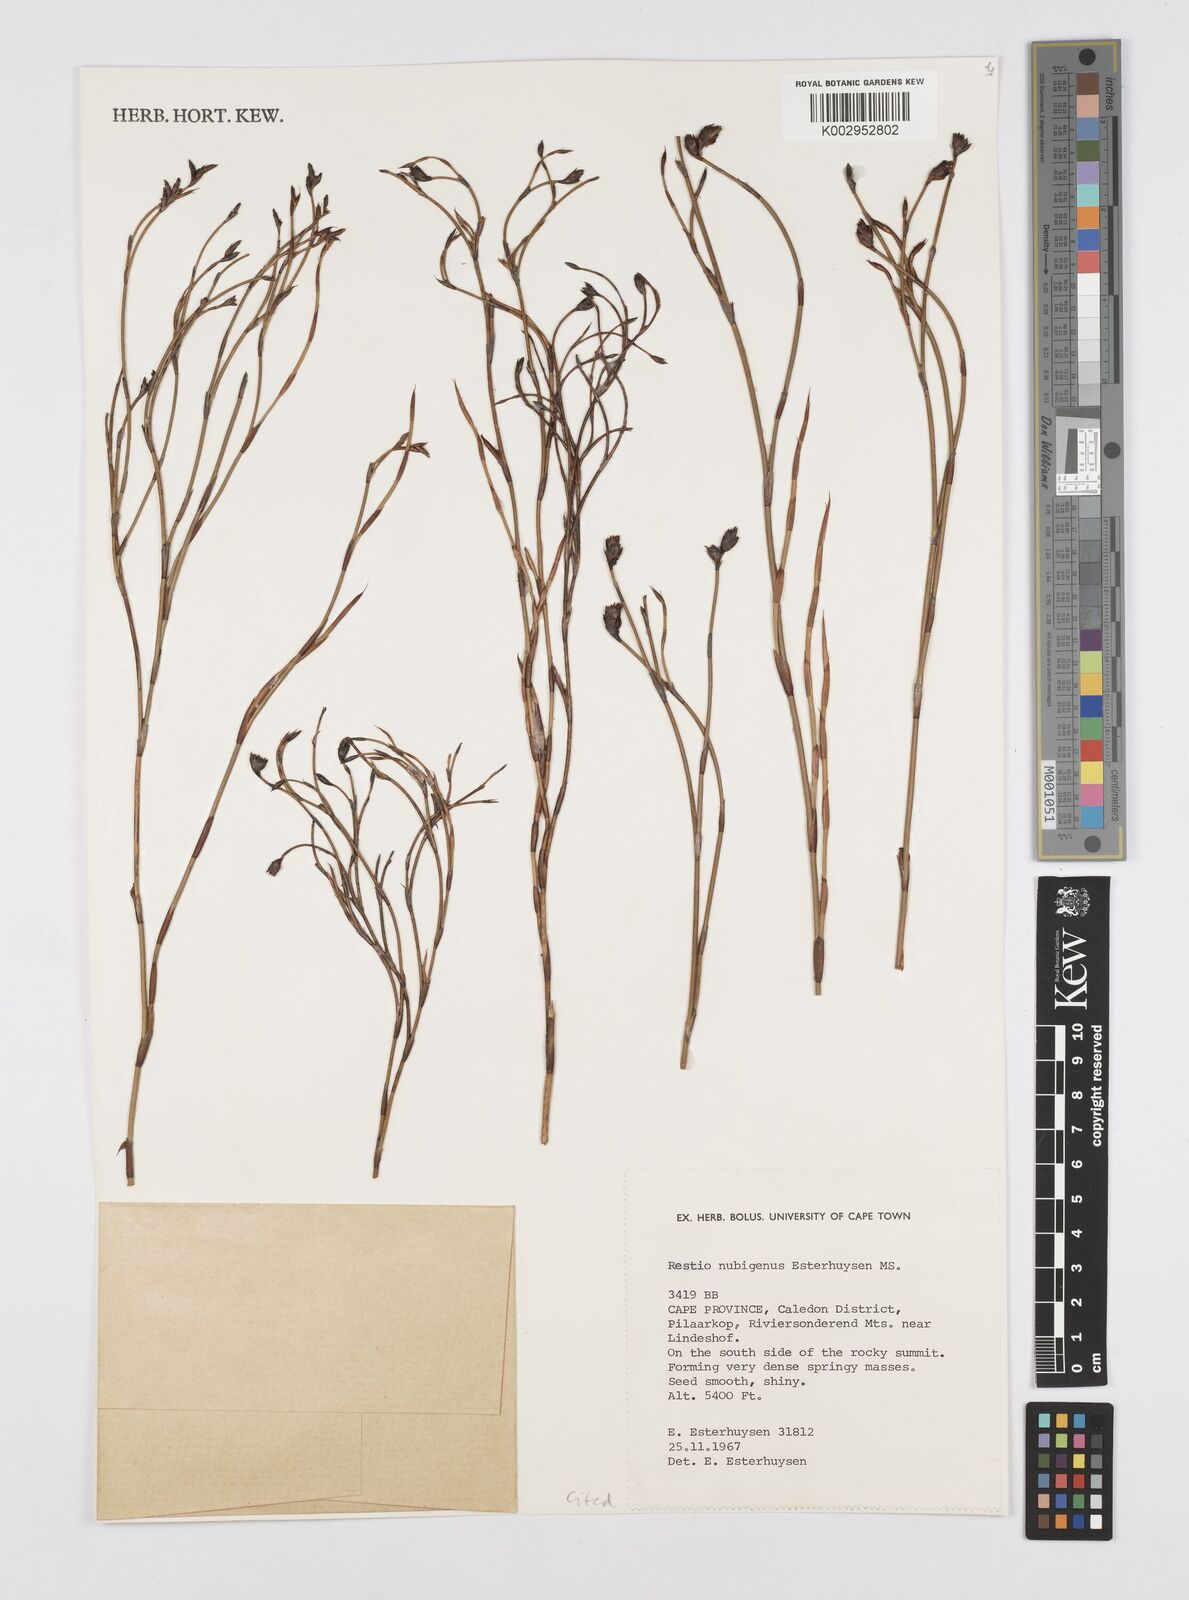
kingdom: Plantae
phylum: Tracheophyta
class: Liliopsida
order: Poales
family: Restionaceae
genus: Restio
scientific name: Restio nubigenus
